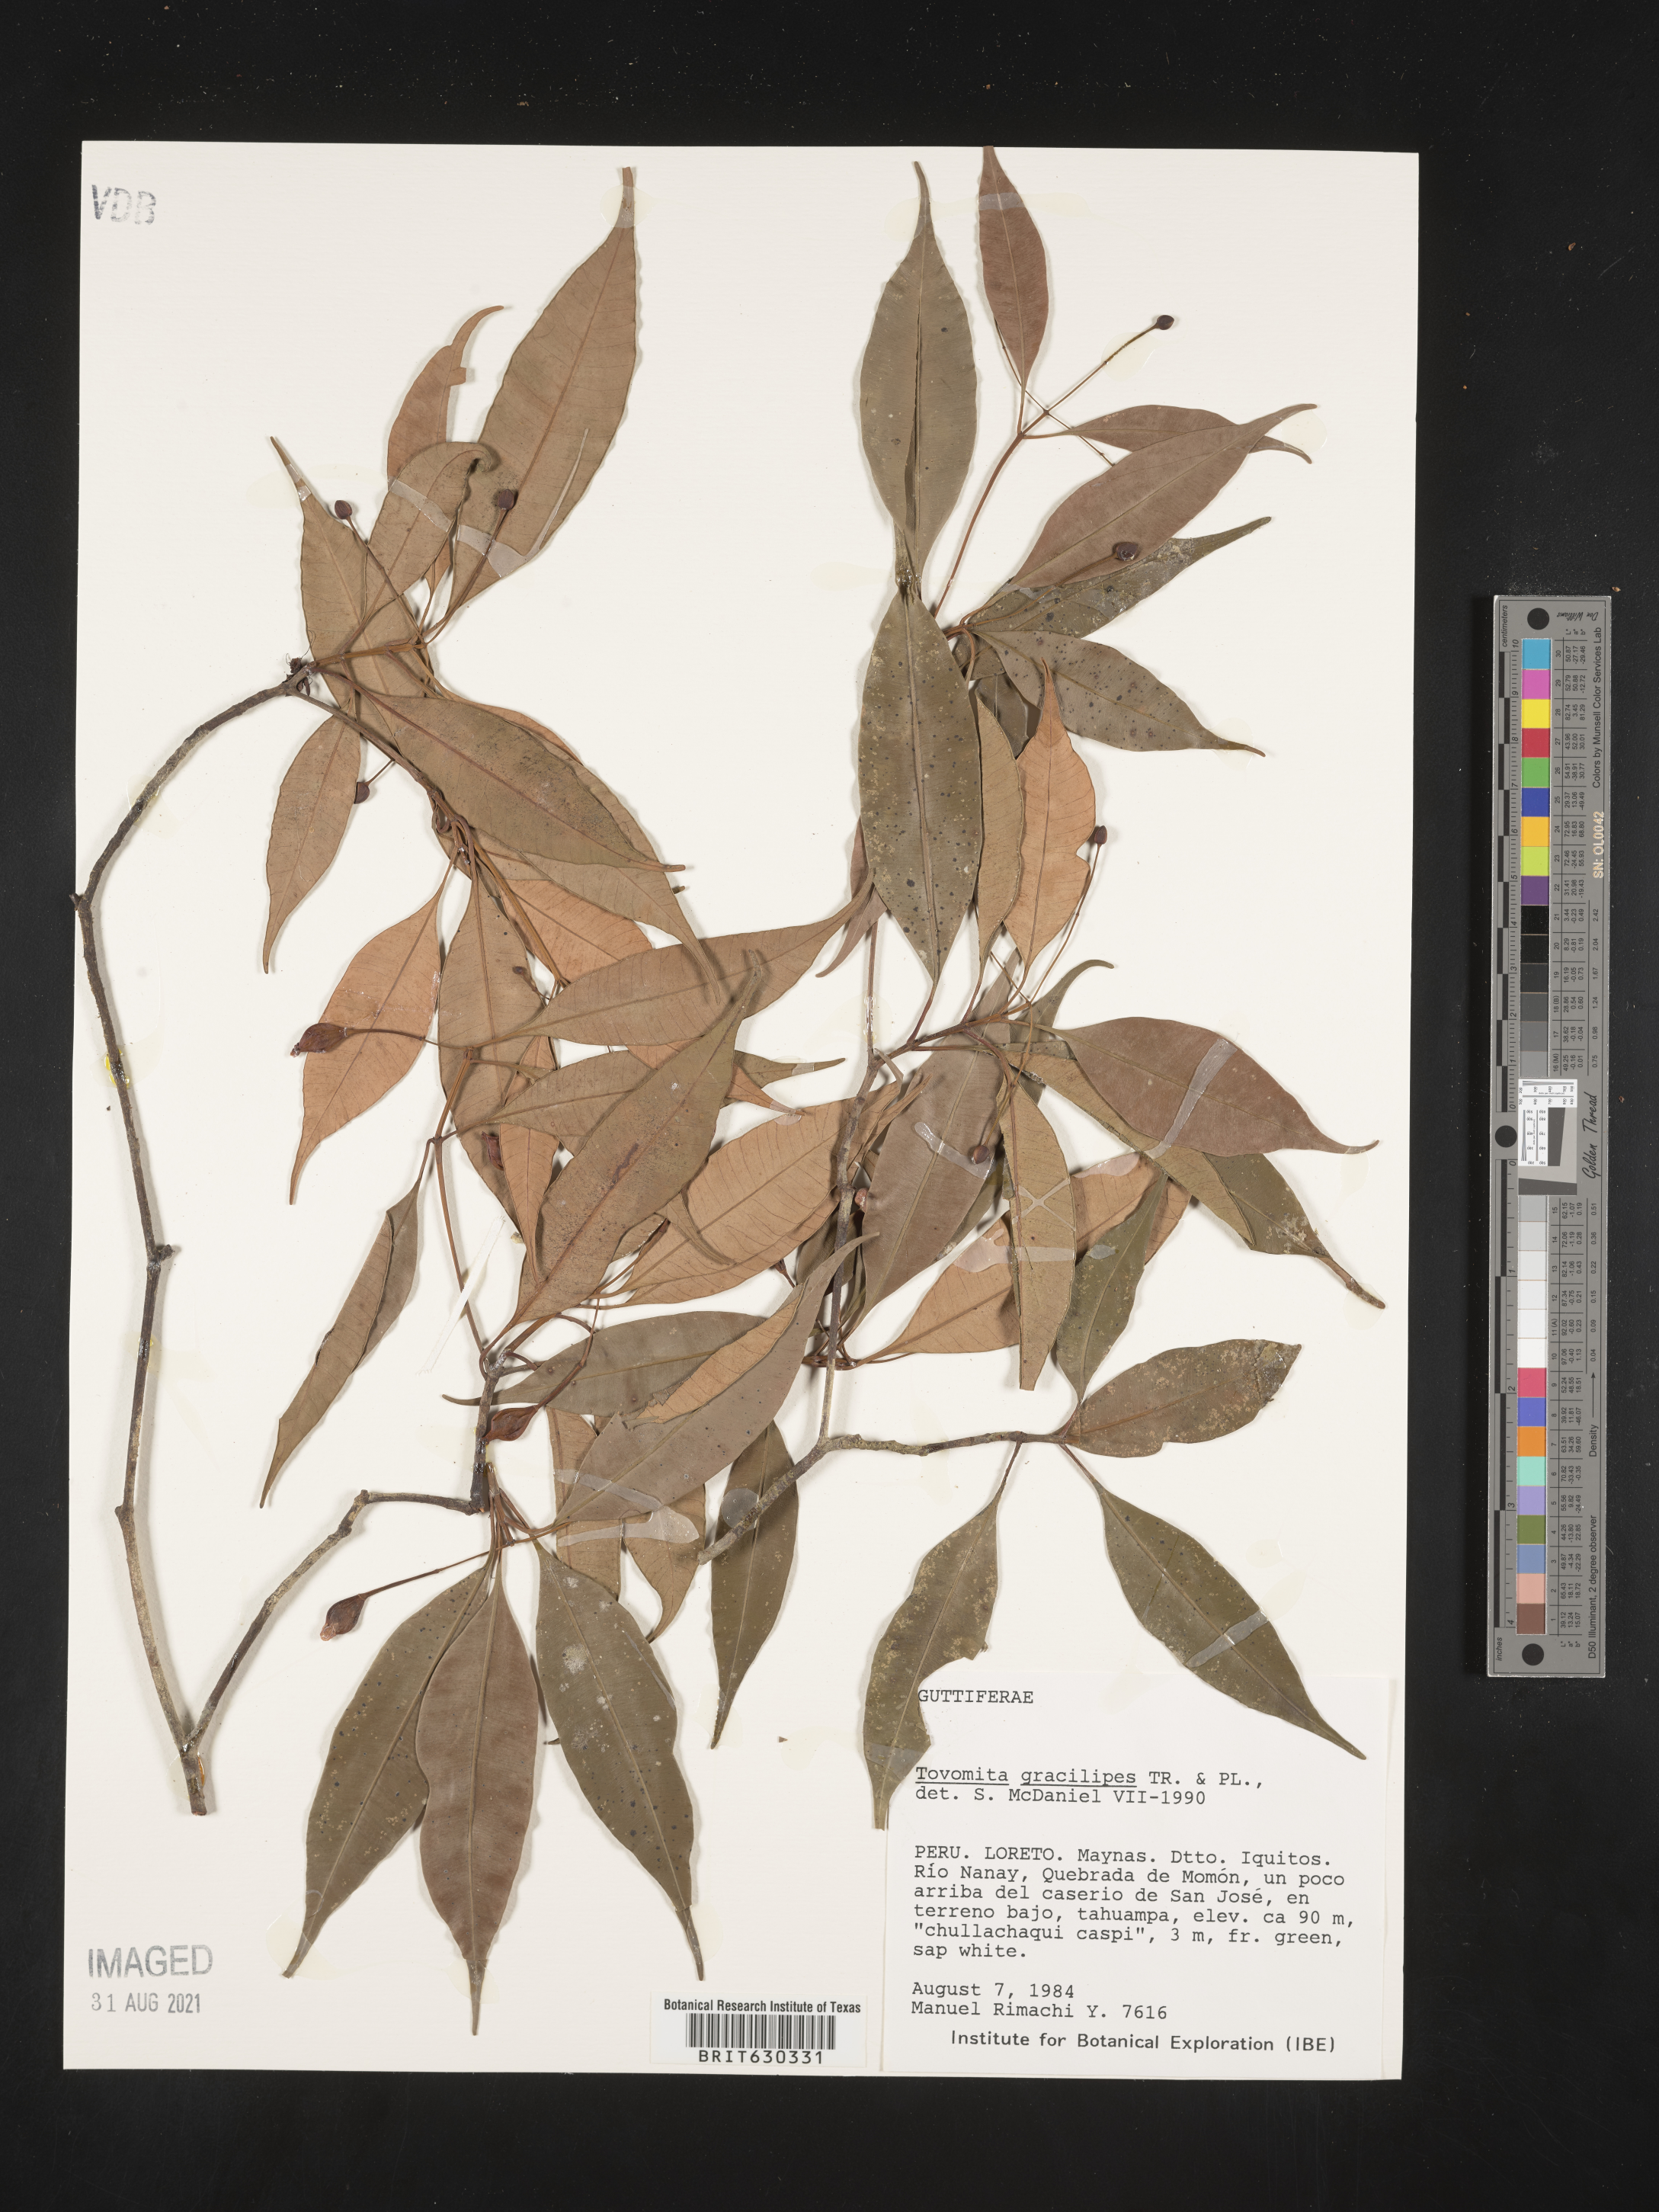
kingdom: Plantae
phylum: Tracheophyta
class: Magnoliopsida
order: Malpighiales
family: Clusiaceae
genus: Tovomita
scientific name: Tovomita gracilipes
